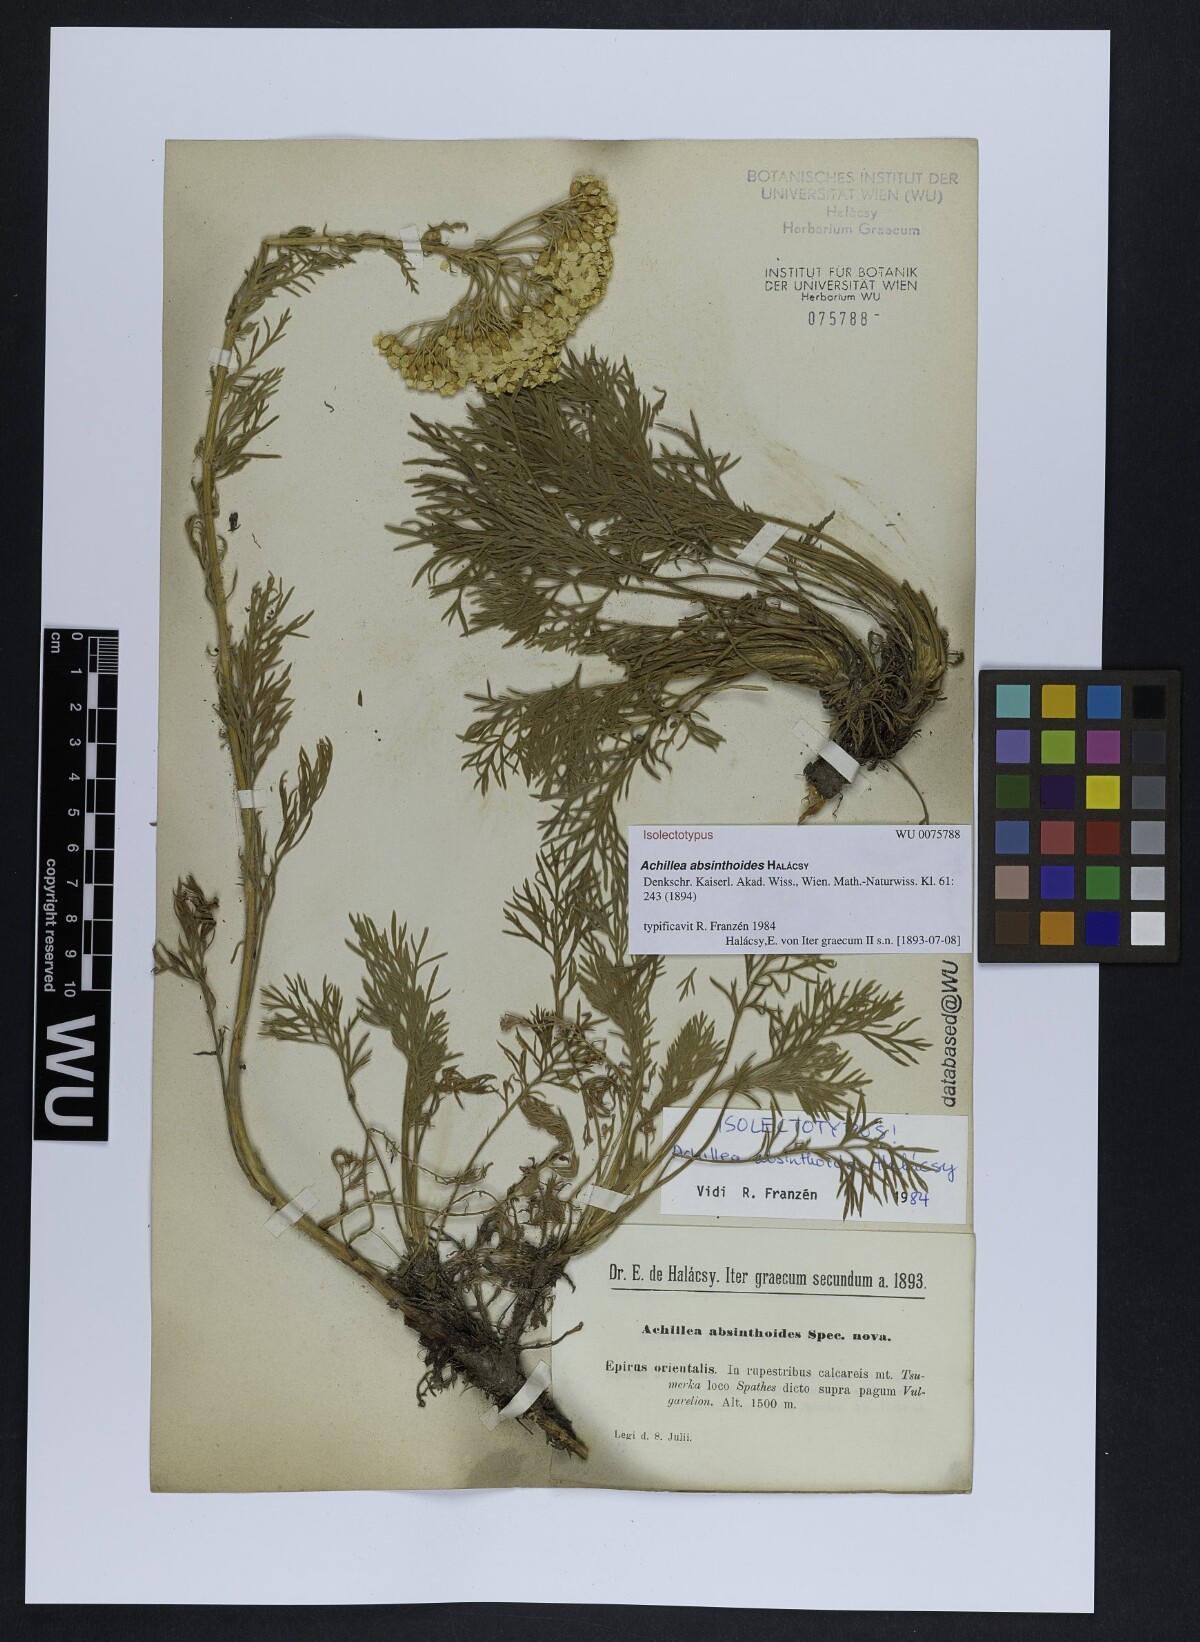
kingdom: Plantae
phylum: Tracheophyta
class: Magnoliopsida
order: Asterales
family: Asteraceae
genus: Achillea
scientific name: Achillea absinthoides
